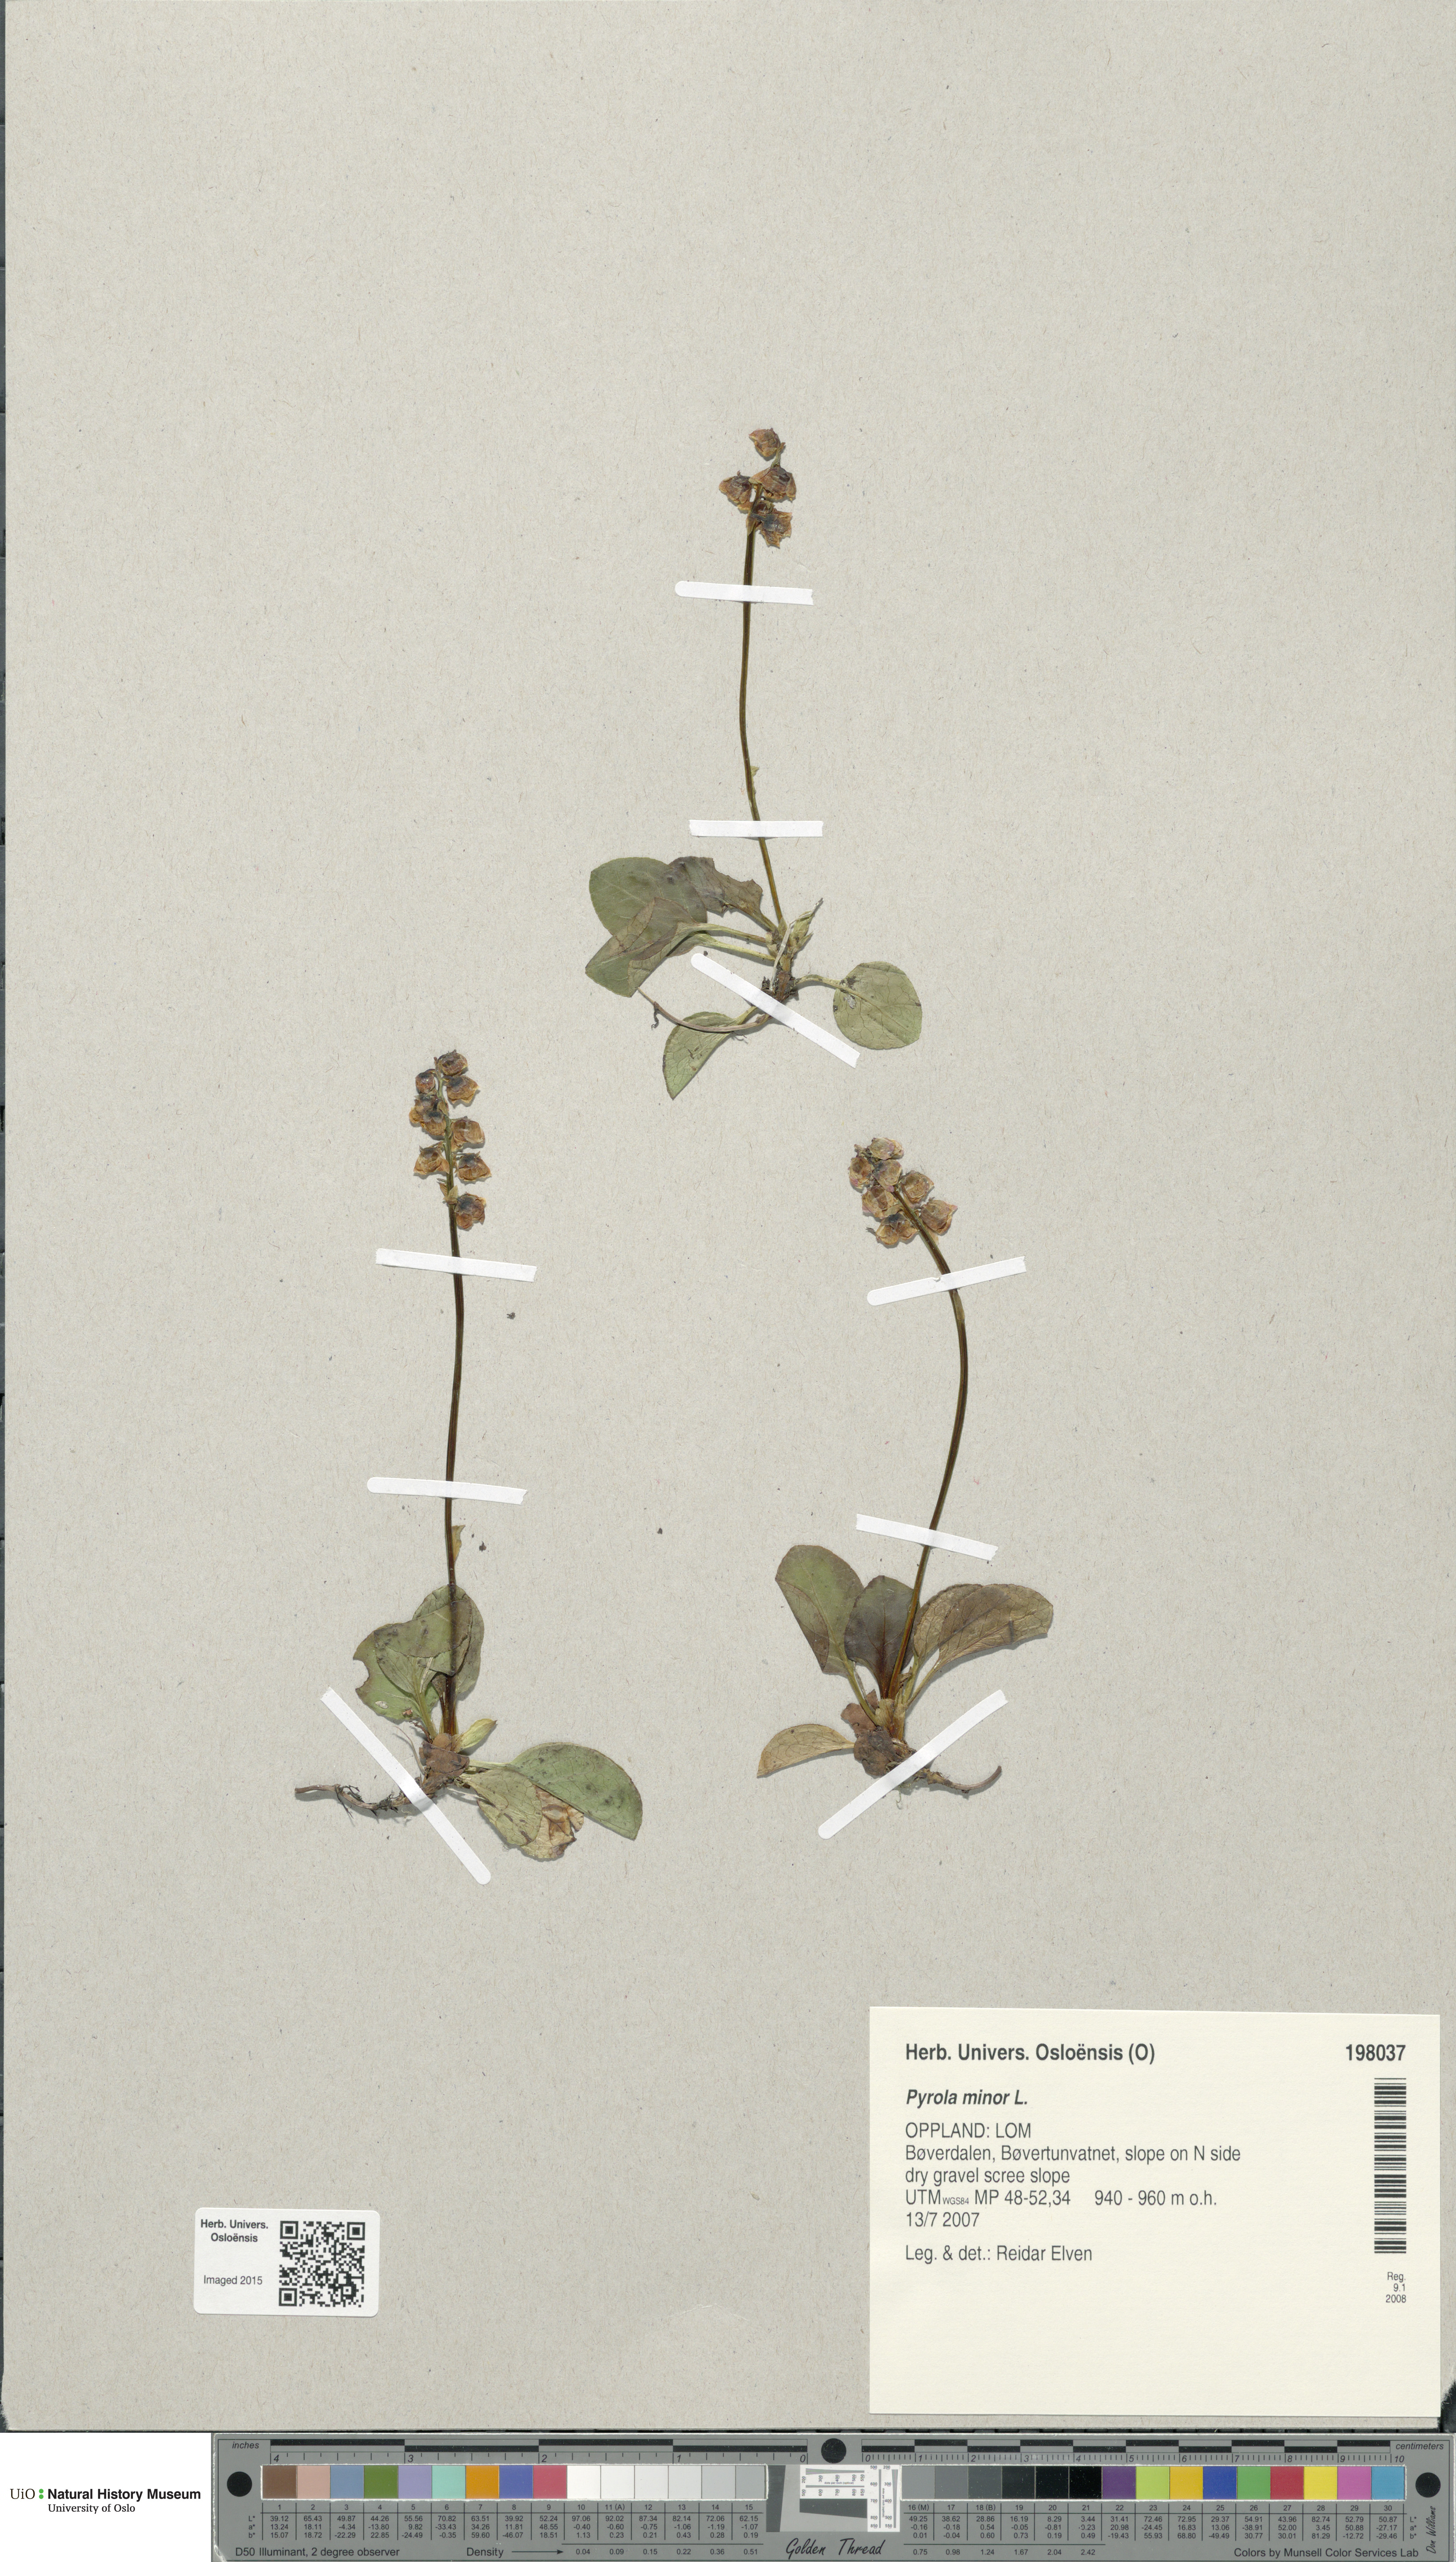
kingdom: Plantae
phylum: Tracheophyta
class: Magnoliopsida
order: Ericales
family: Ericaceae
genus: Pyrola
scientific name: Pyrola minor
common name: Common wintergreen
